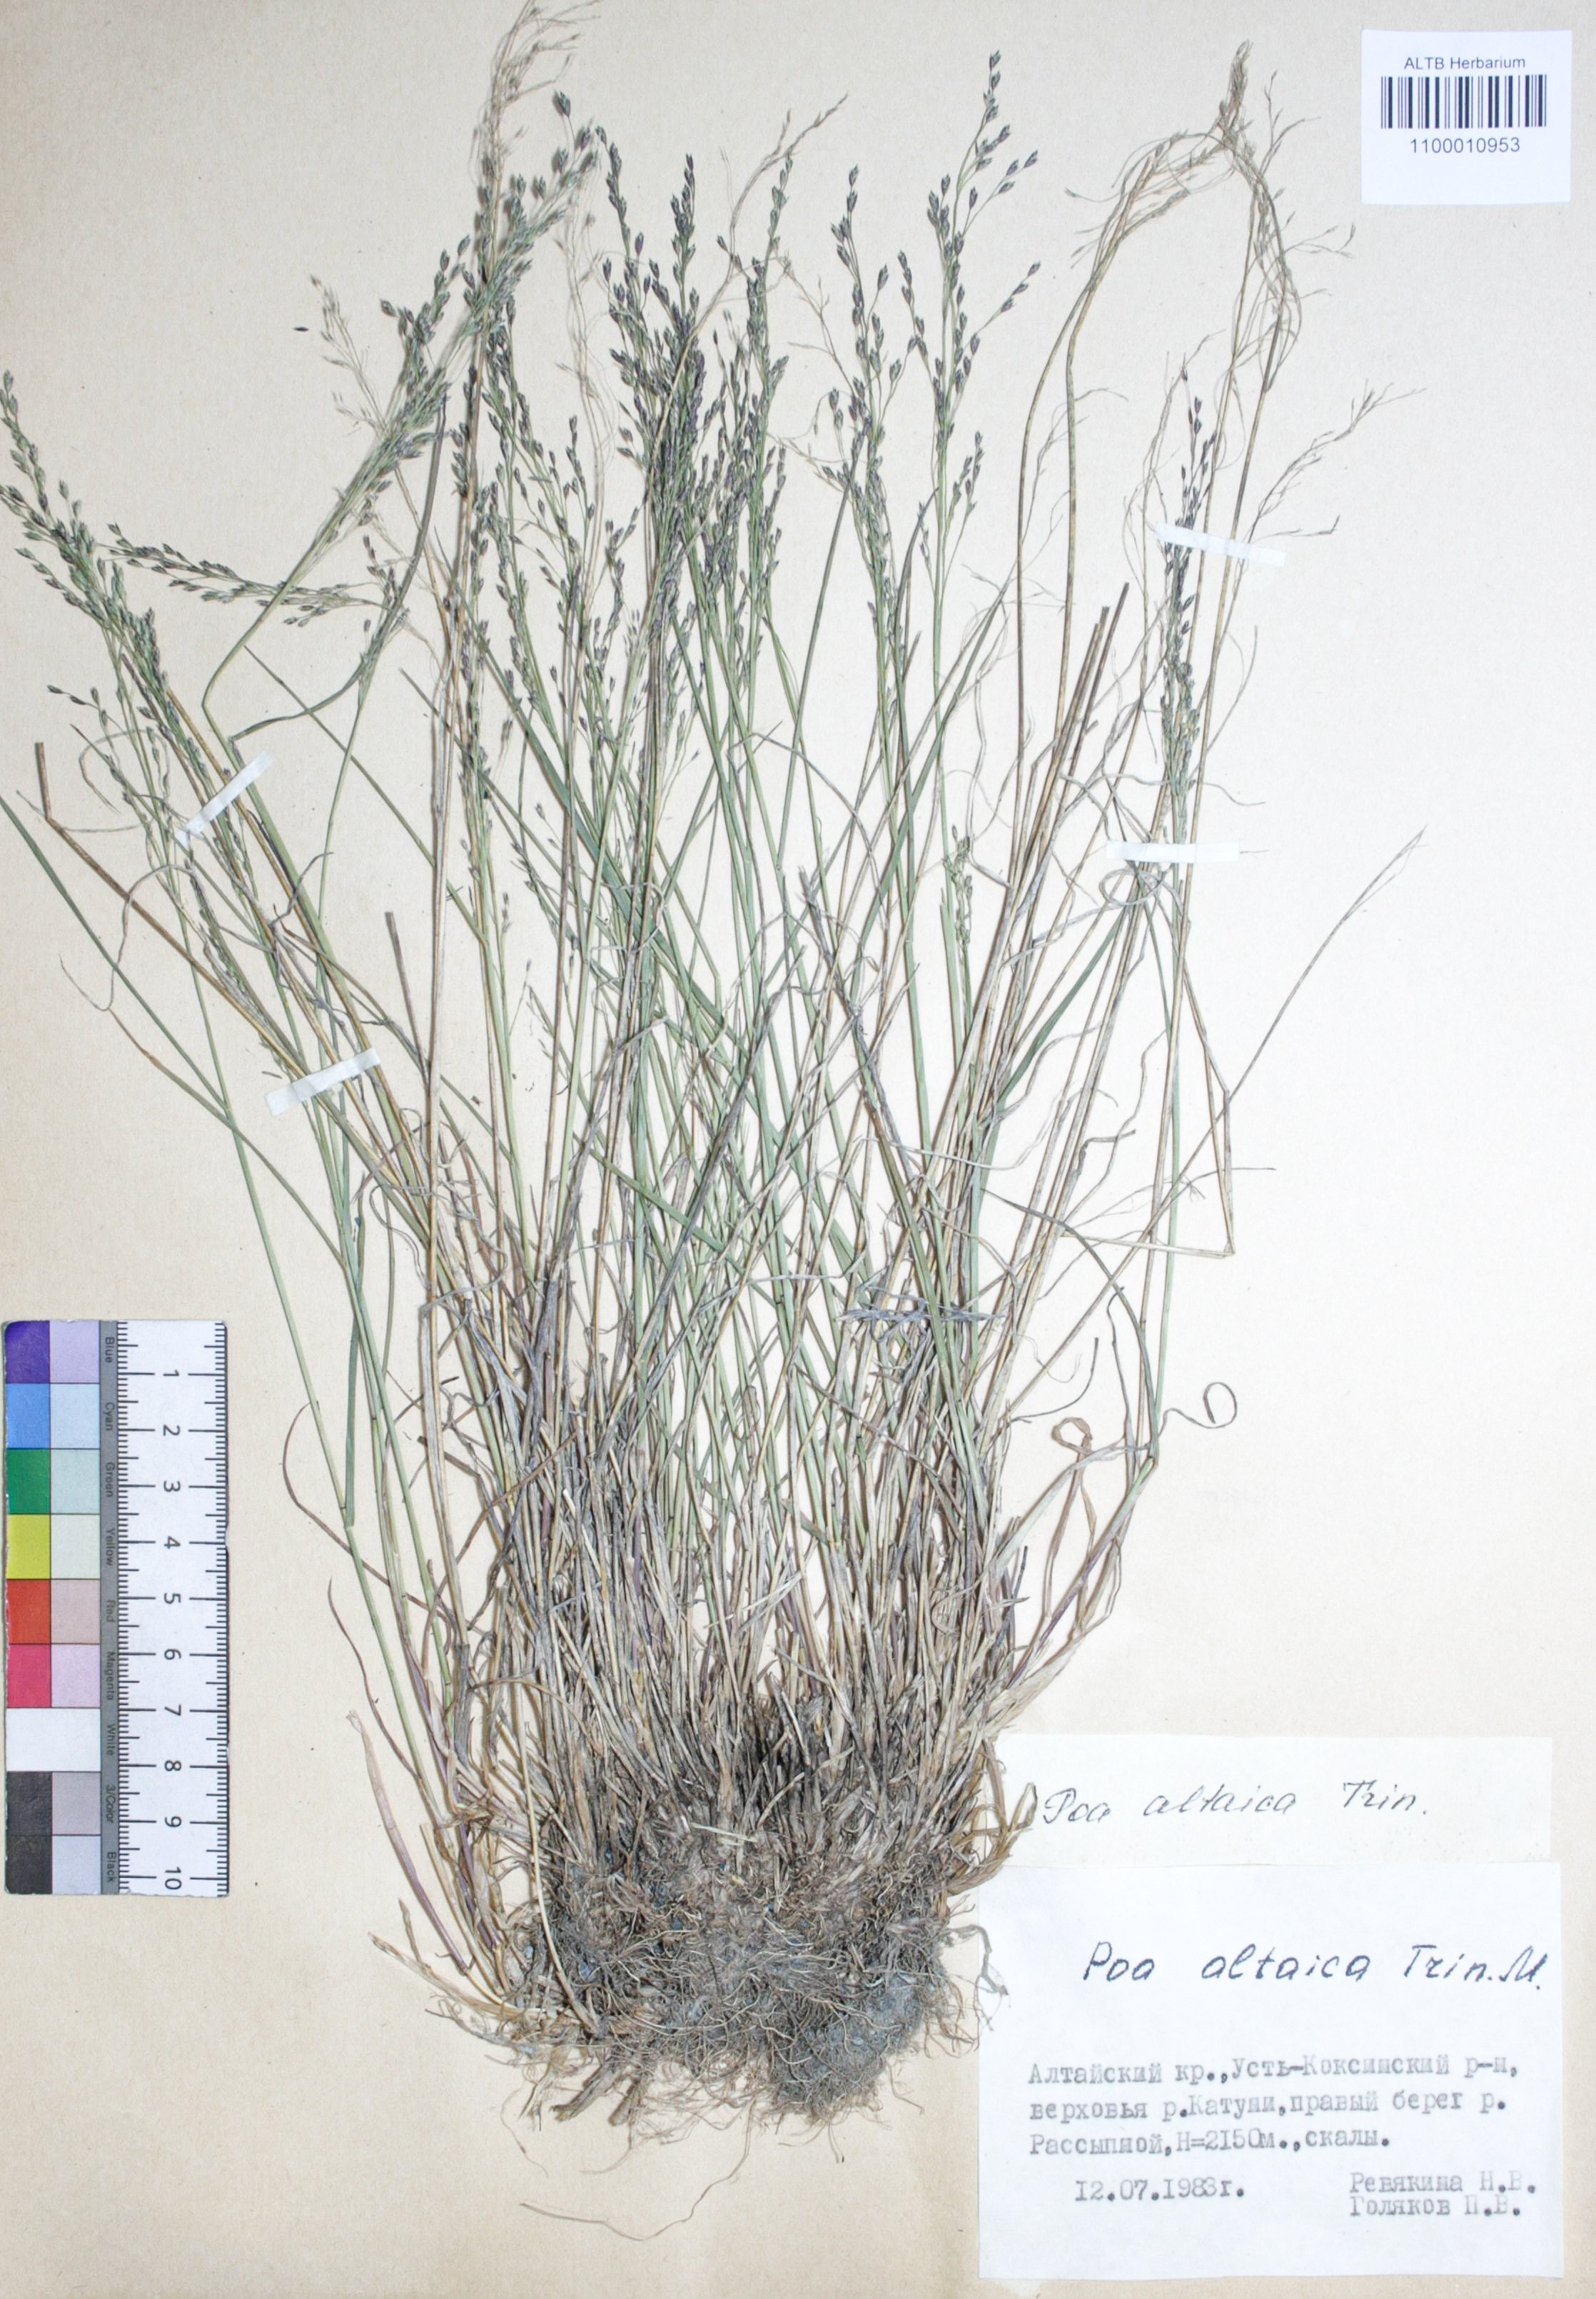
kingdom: Plantae
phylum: Tracheophyta
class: Liliopsida
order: Poales
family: Poaceae
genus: Poa
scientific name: Poa glauca
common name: Glaucous bluegrass
